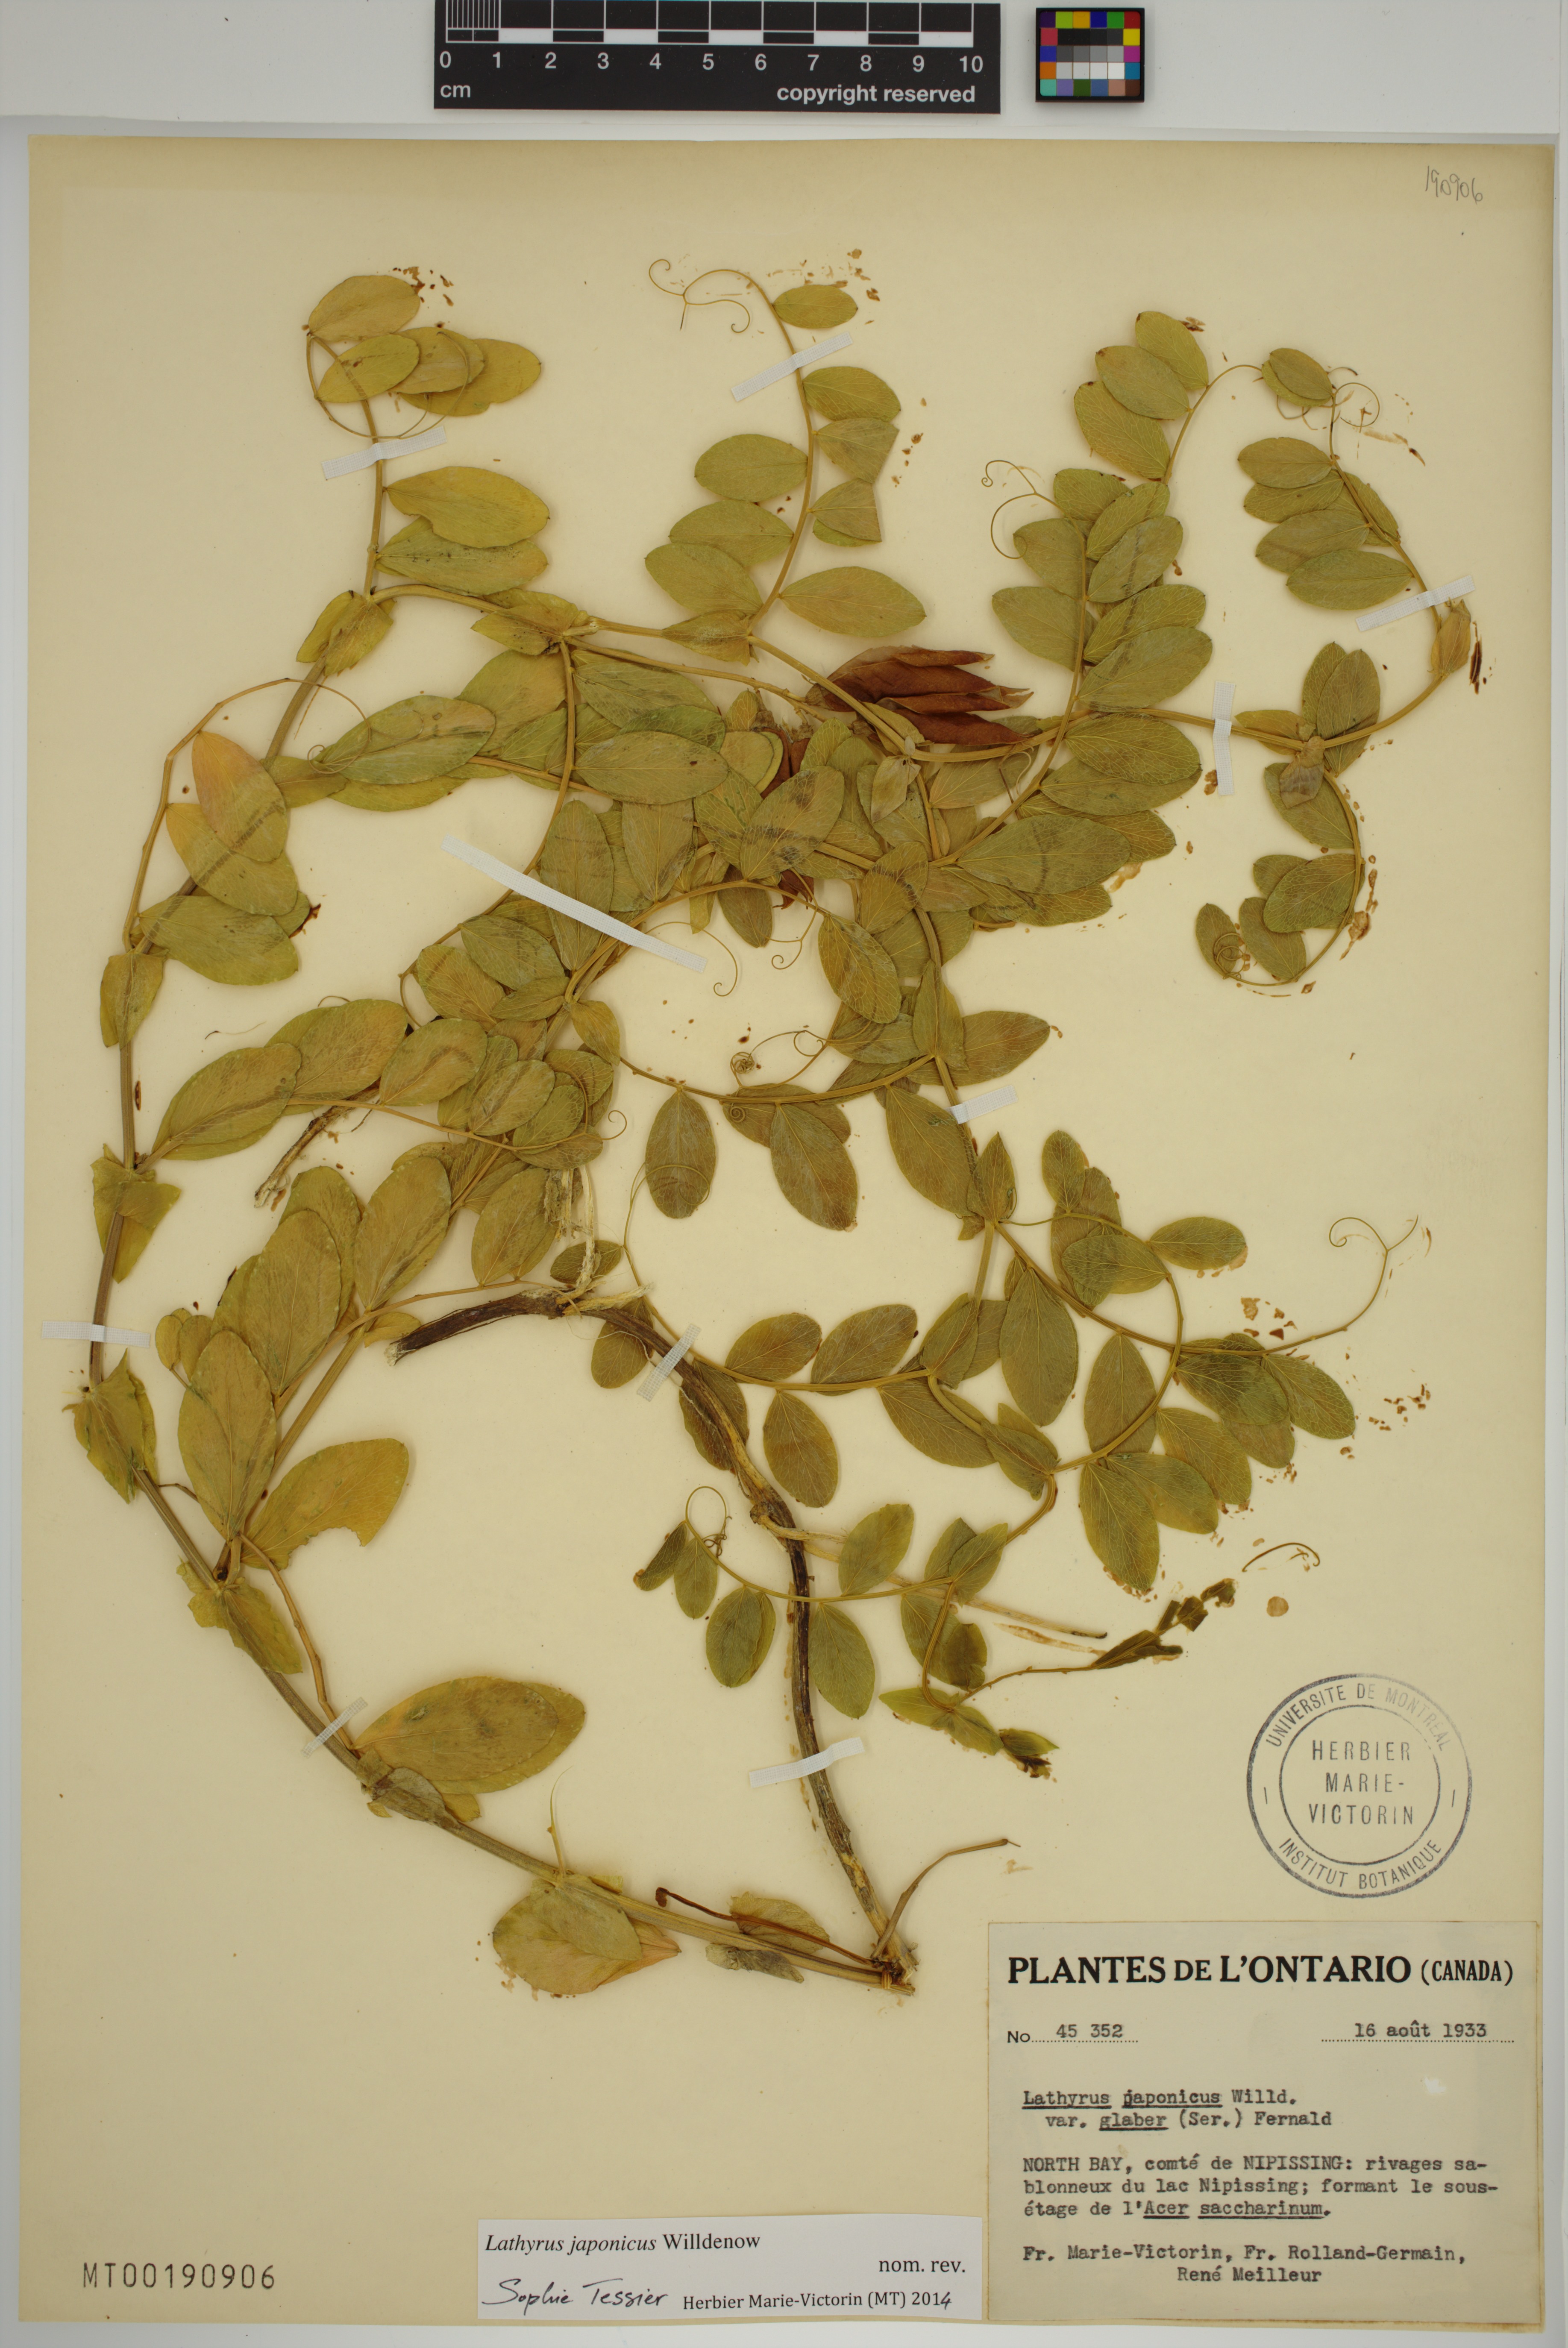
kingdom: Plantae
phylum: Tracheophyta
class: Magnoliopsida
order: Fabales
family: Fabaceae
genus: Lathyrus
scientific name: Lathyrus japonicus
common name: Sea pea
